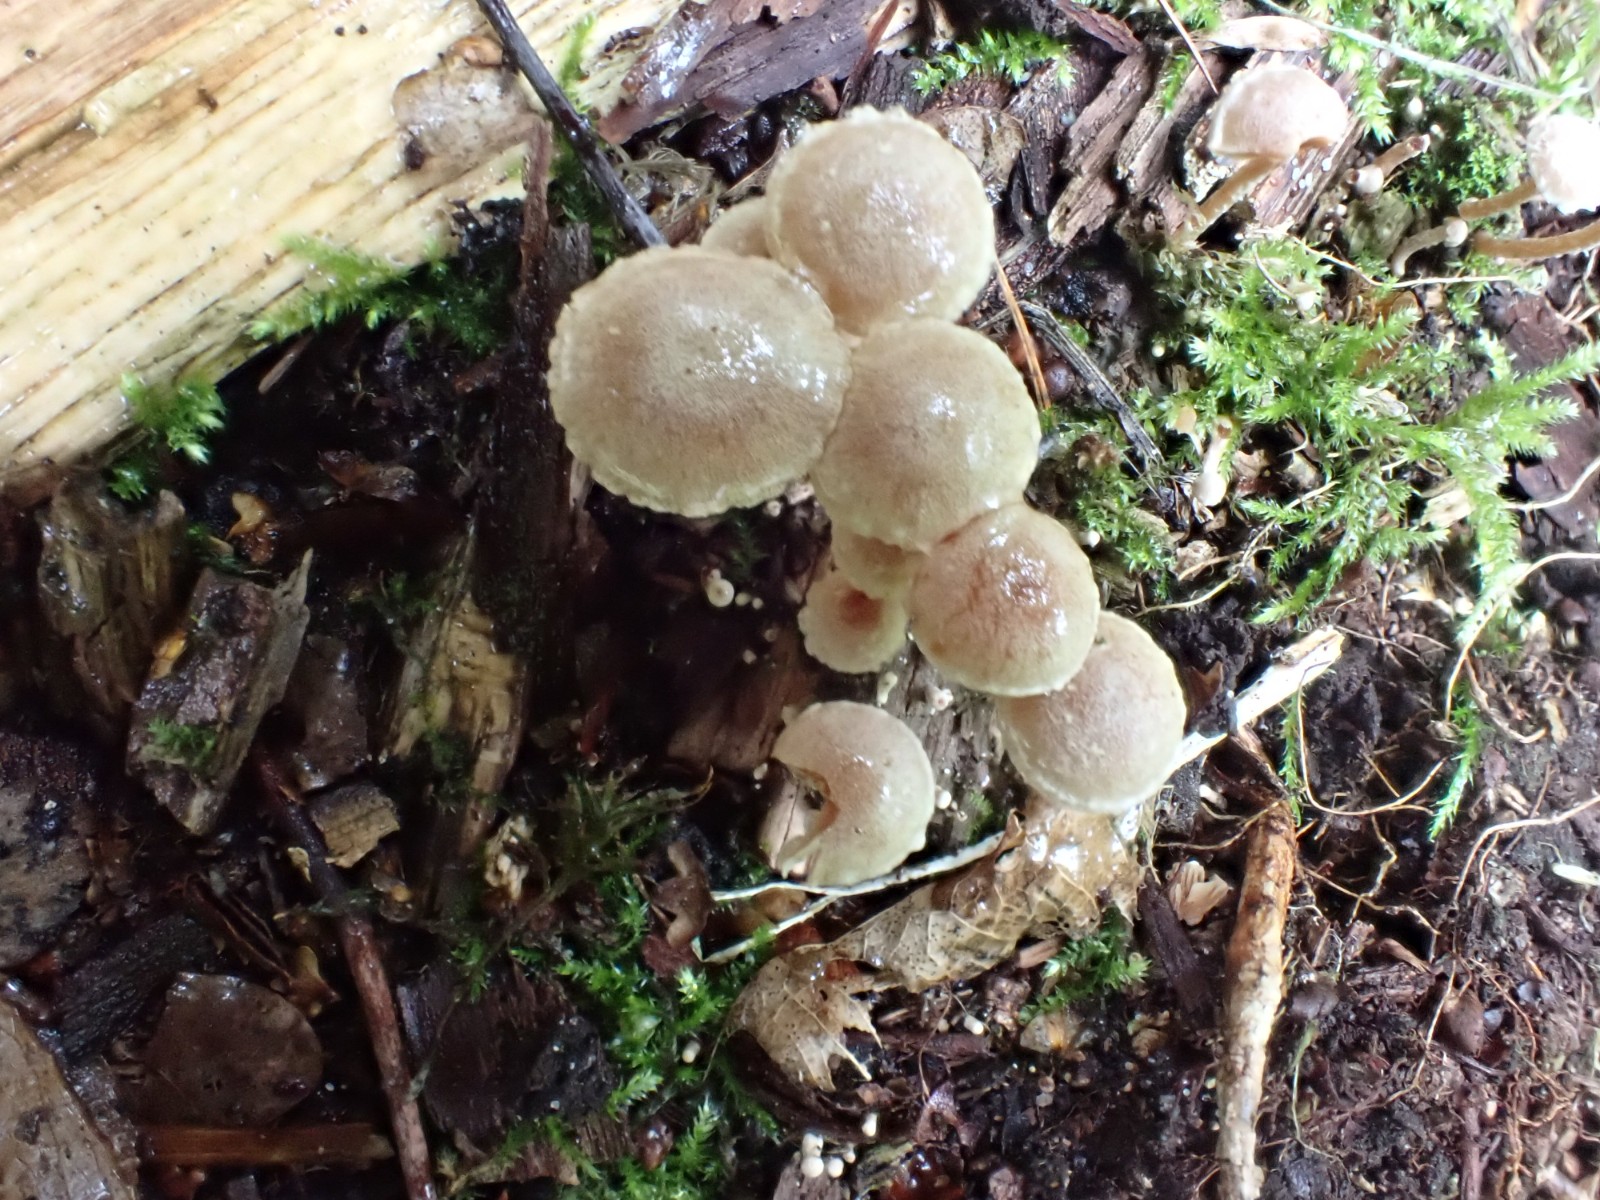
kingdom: Fungi
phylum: Basidiomycota
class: Agaricomycetes
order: Agaricales
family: Tubariaceae
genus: Tubaria
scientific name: Tubaria conspersa
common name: bleg fnughat
